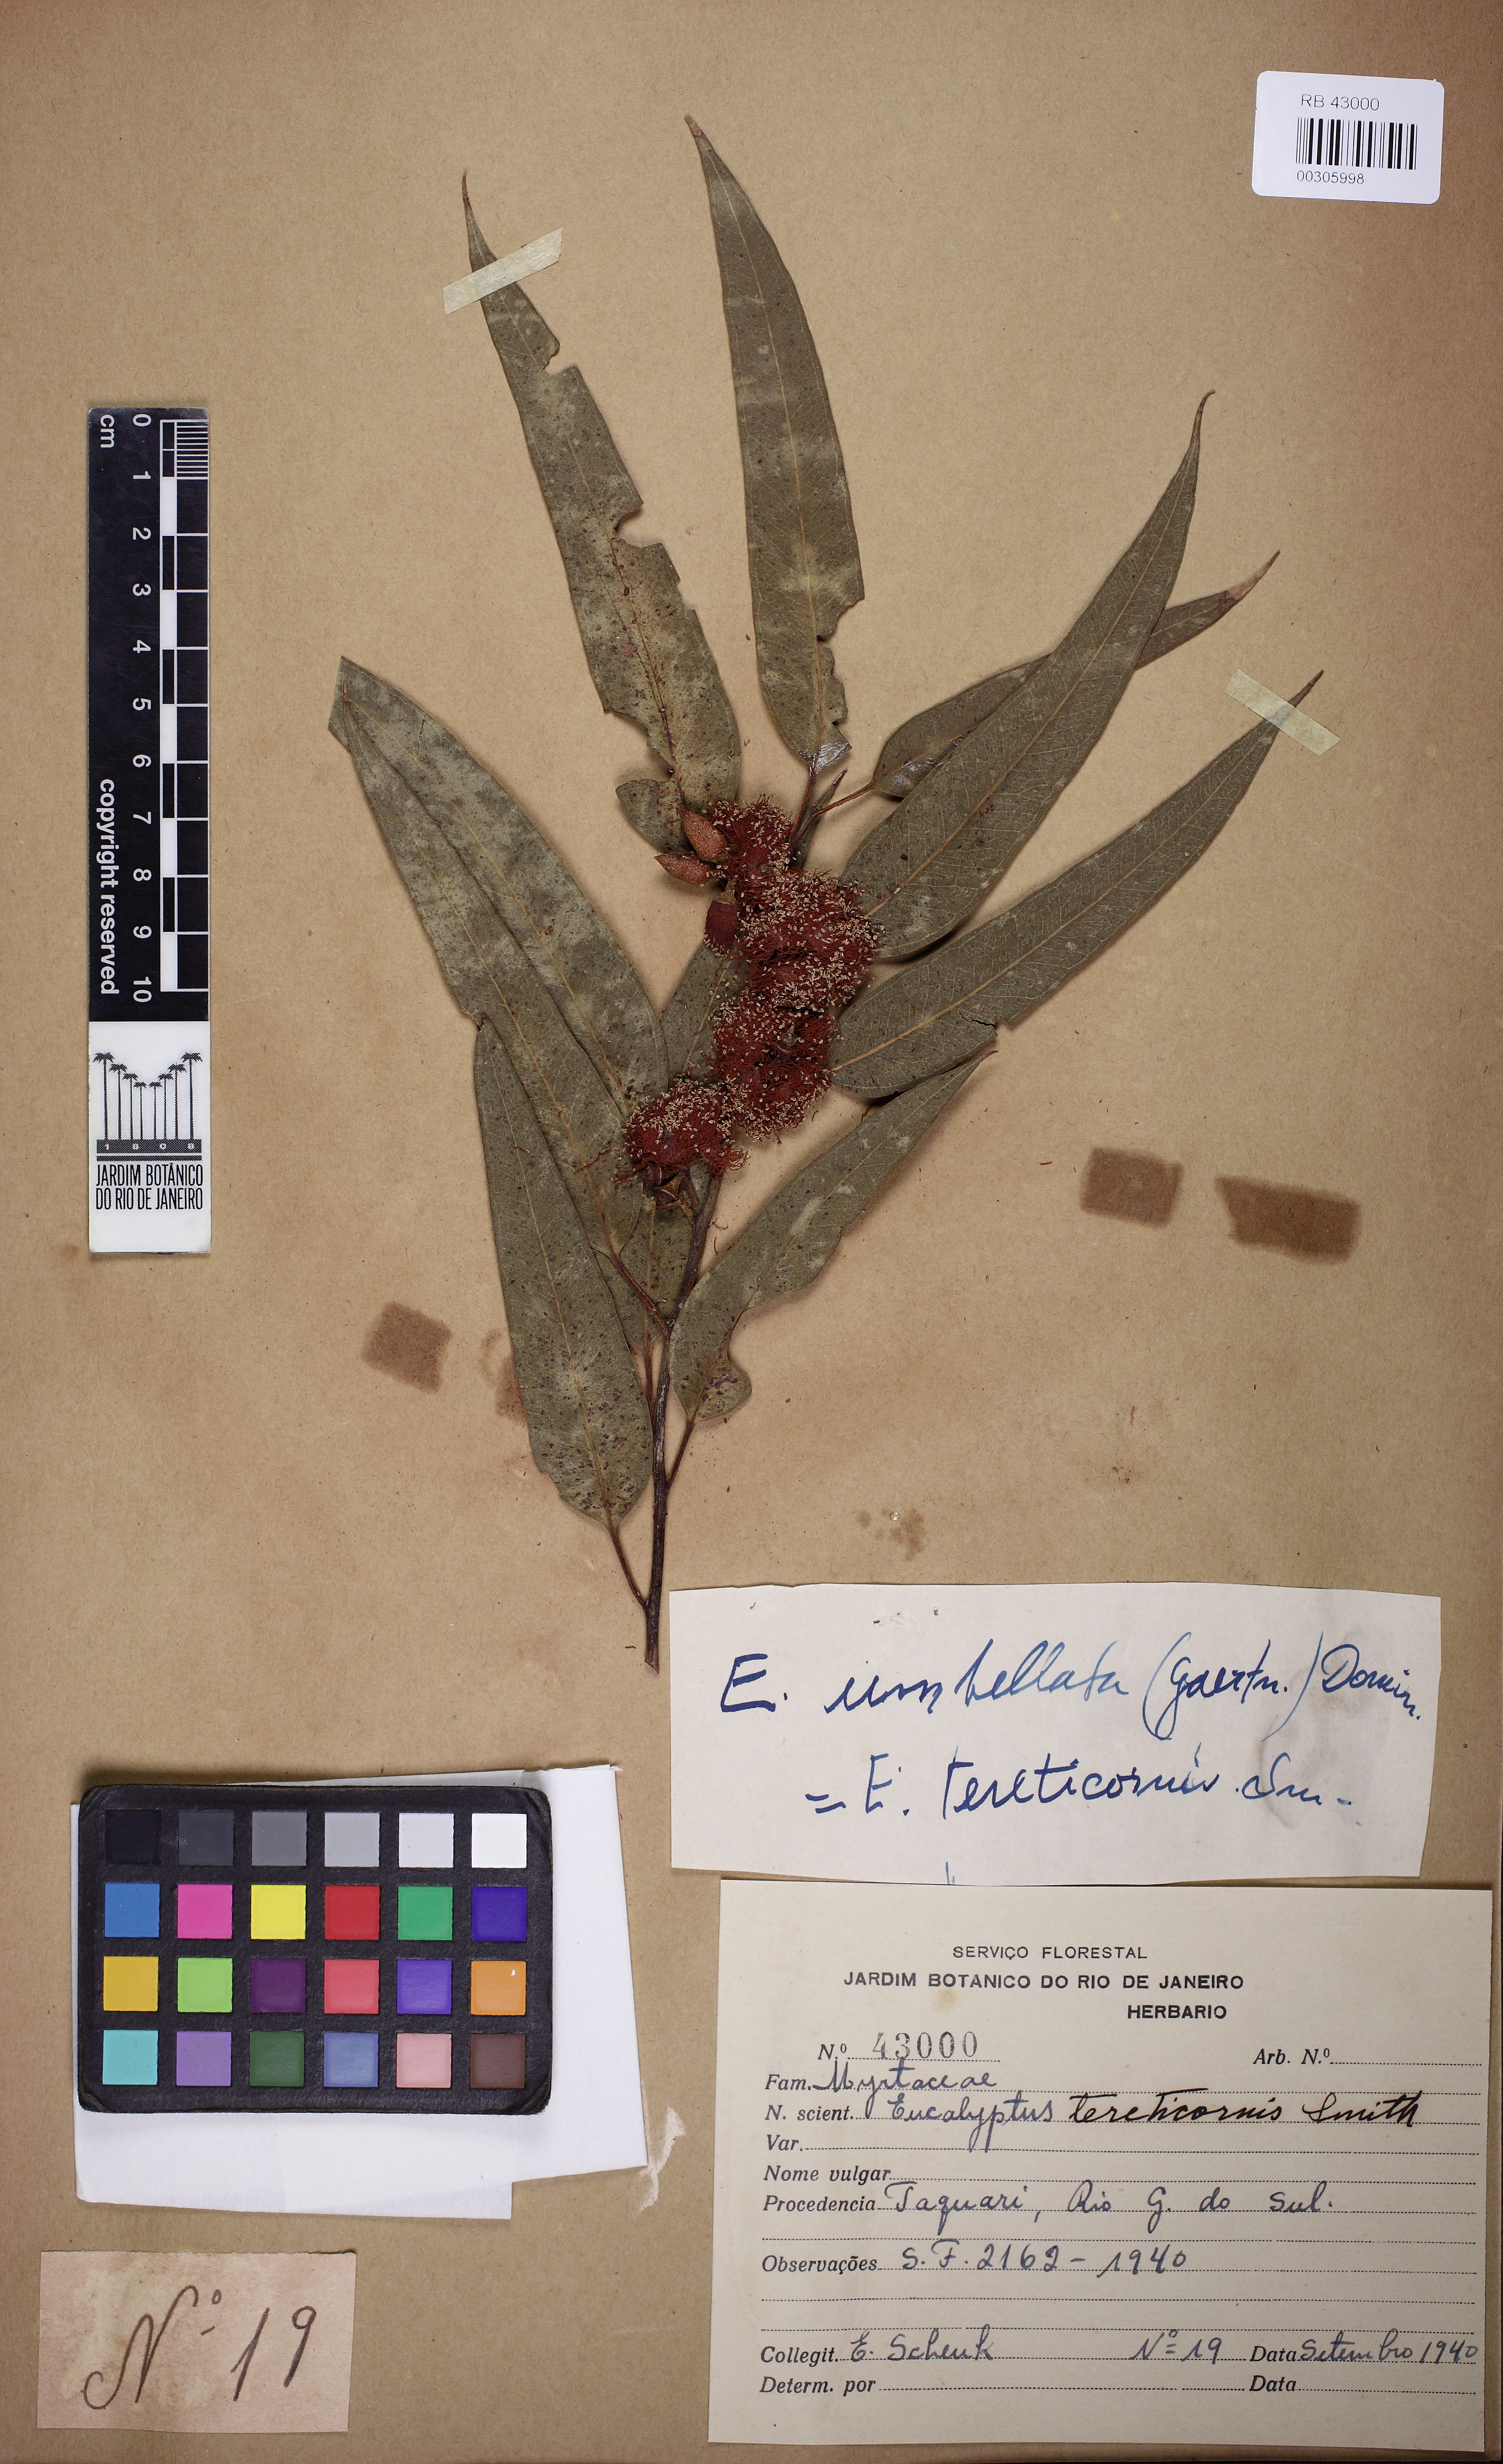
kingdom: Plantae
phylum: Tracheophyta
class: Magnoliopsida
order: Myrtales
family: Myrtaceae
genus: Eucalyptus
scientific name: Eucalyptus tereticornis
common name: Forest redgum
